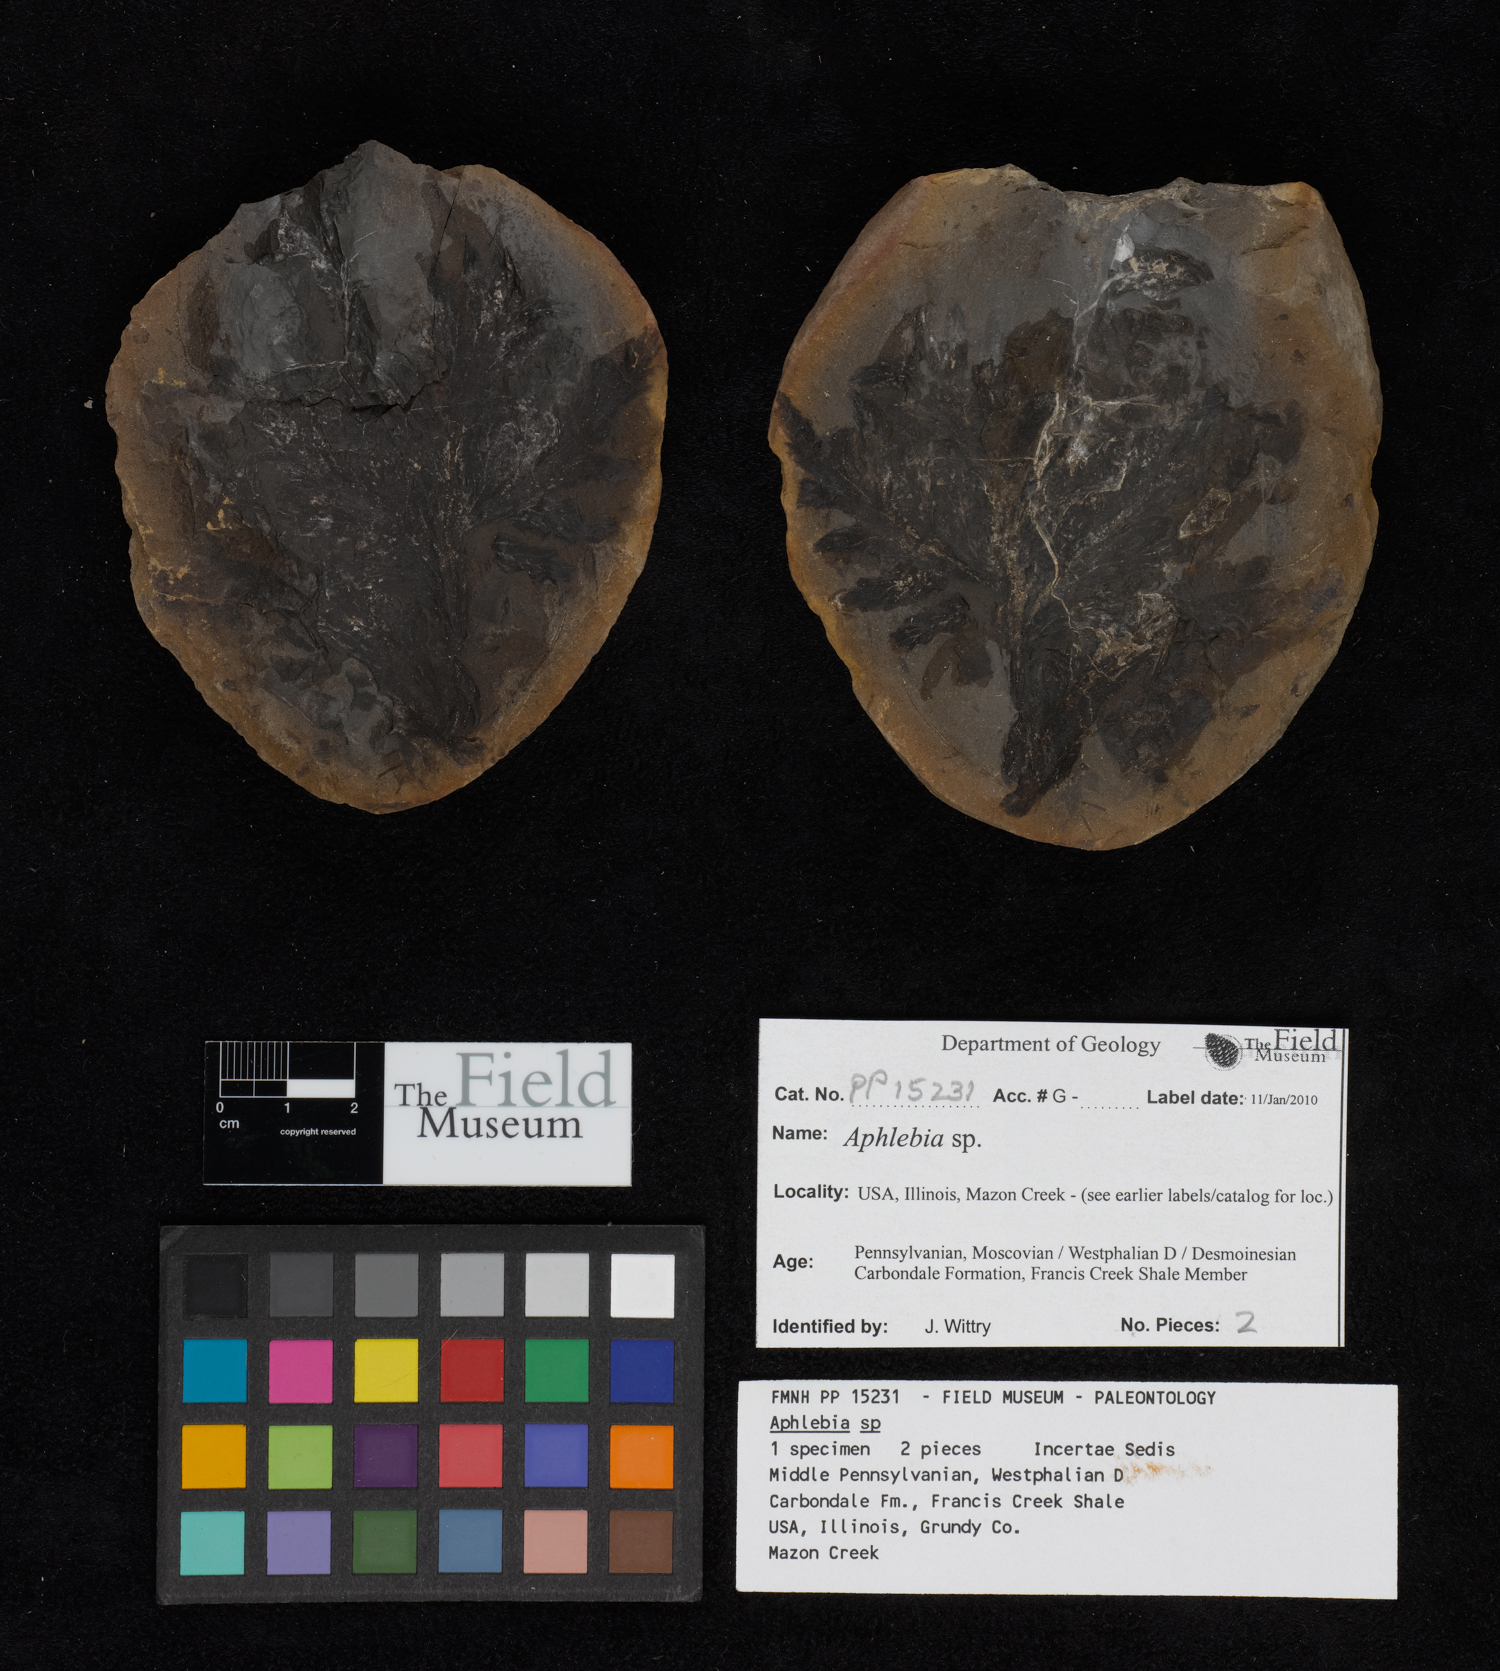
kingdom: Plantae
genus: Rhacophyllum
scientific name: Rhacophyllum
